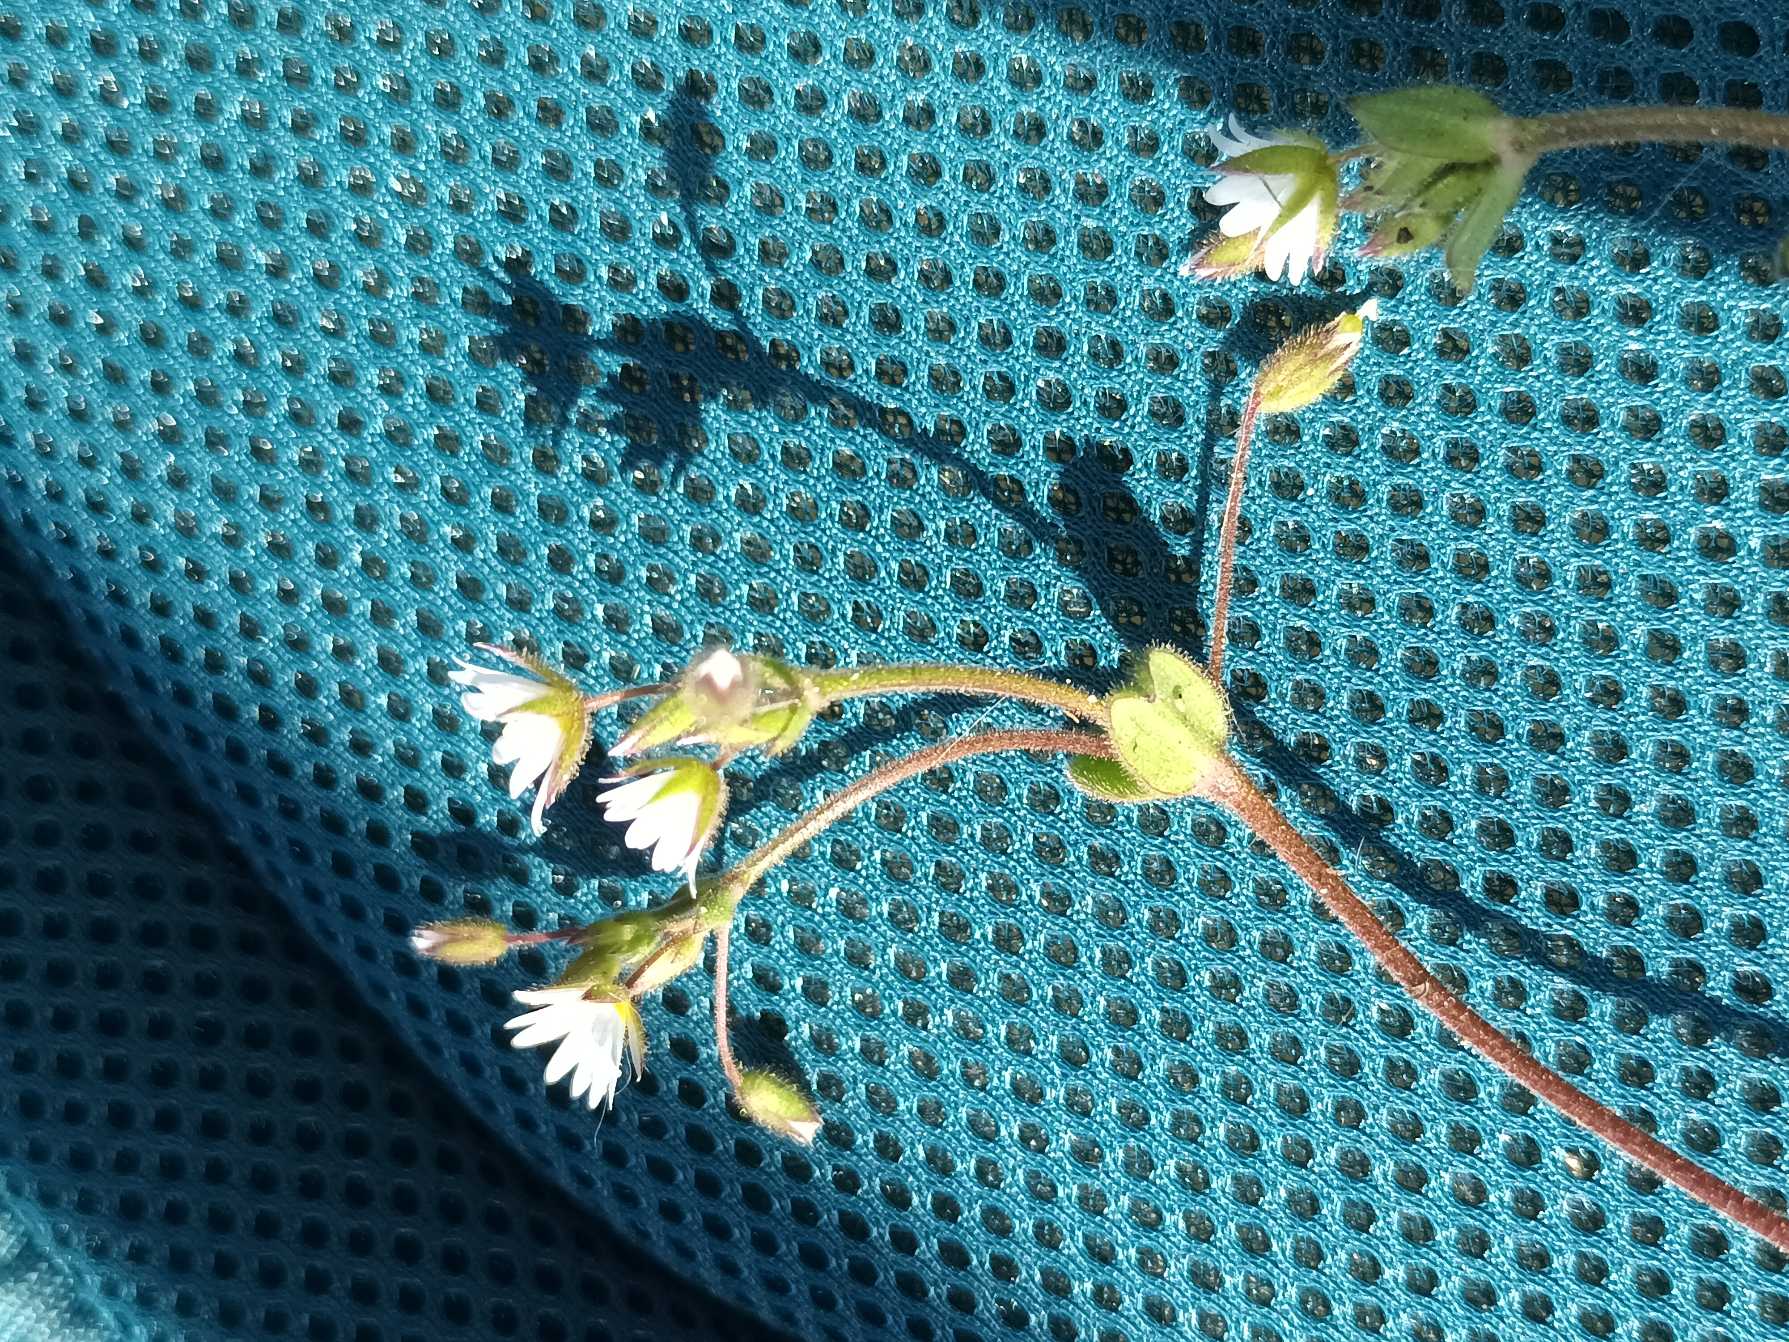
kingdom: Plantae
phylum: Tracheophyta
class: Magnoliopsida
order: Caryophyllales
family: Caryophyllaceae
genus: Cerastium
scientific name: Cerastium pumilum
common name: Liden hønsetarm
